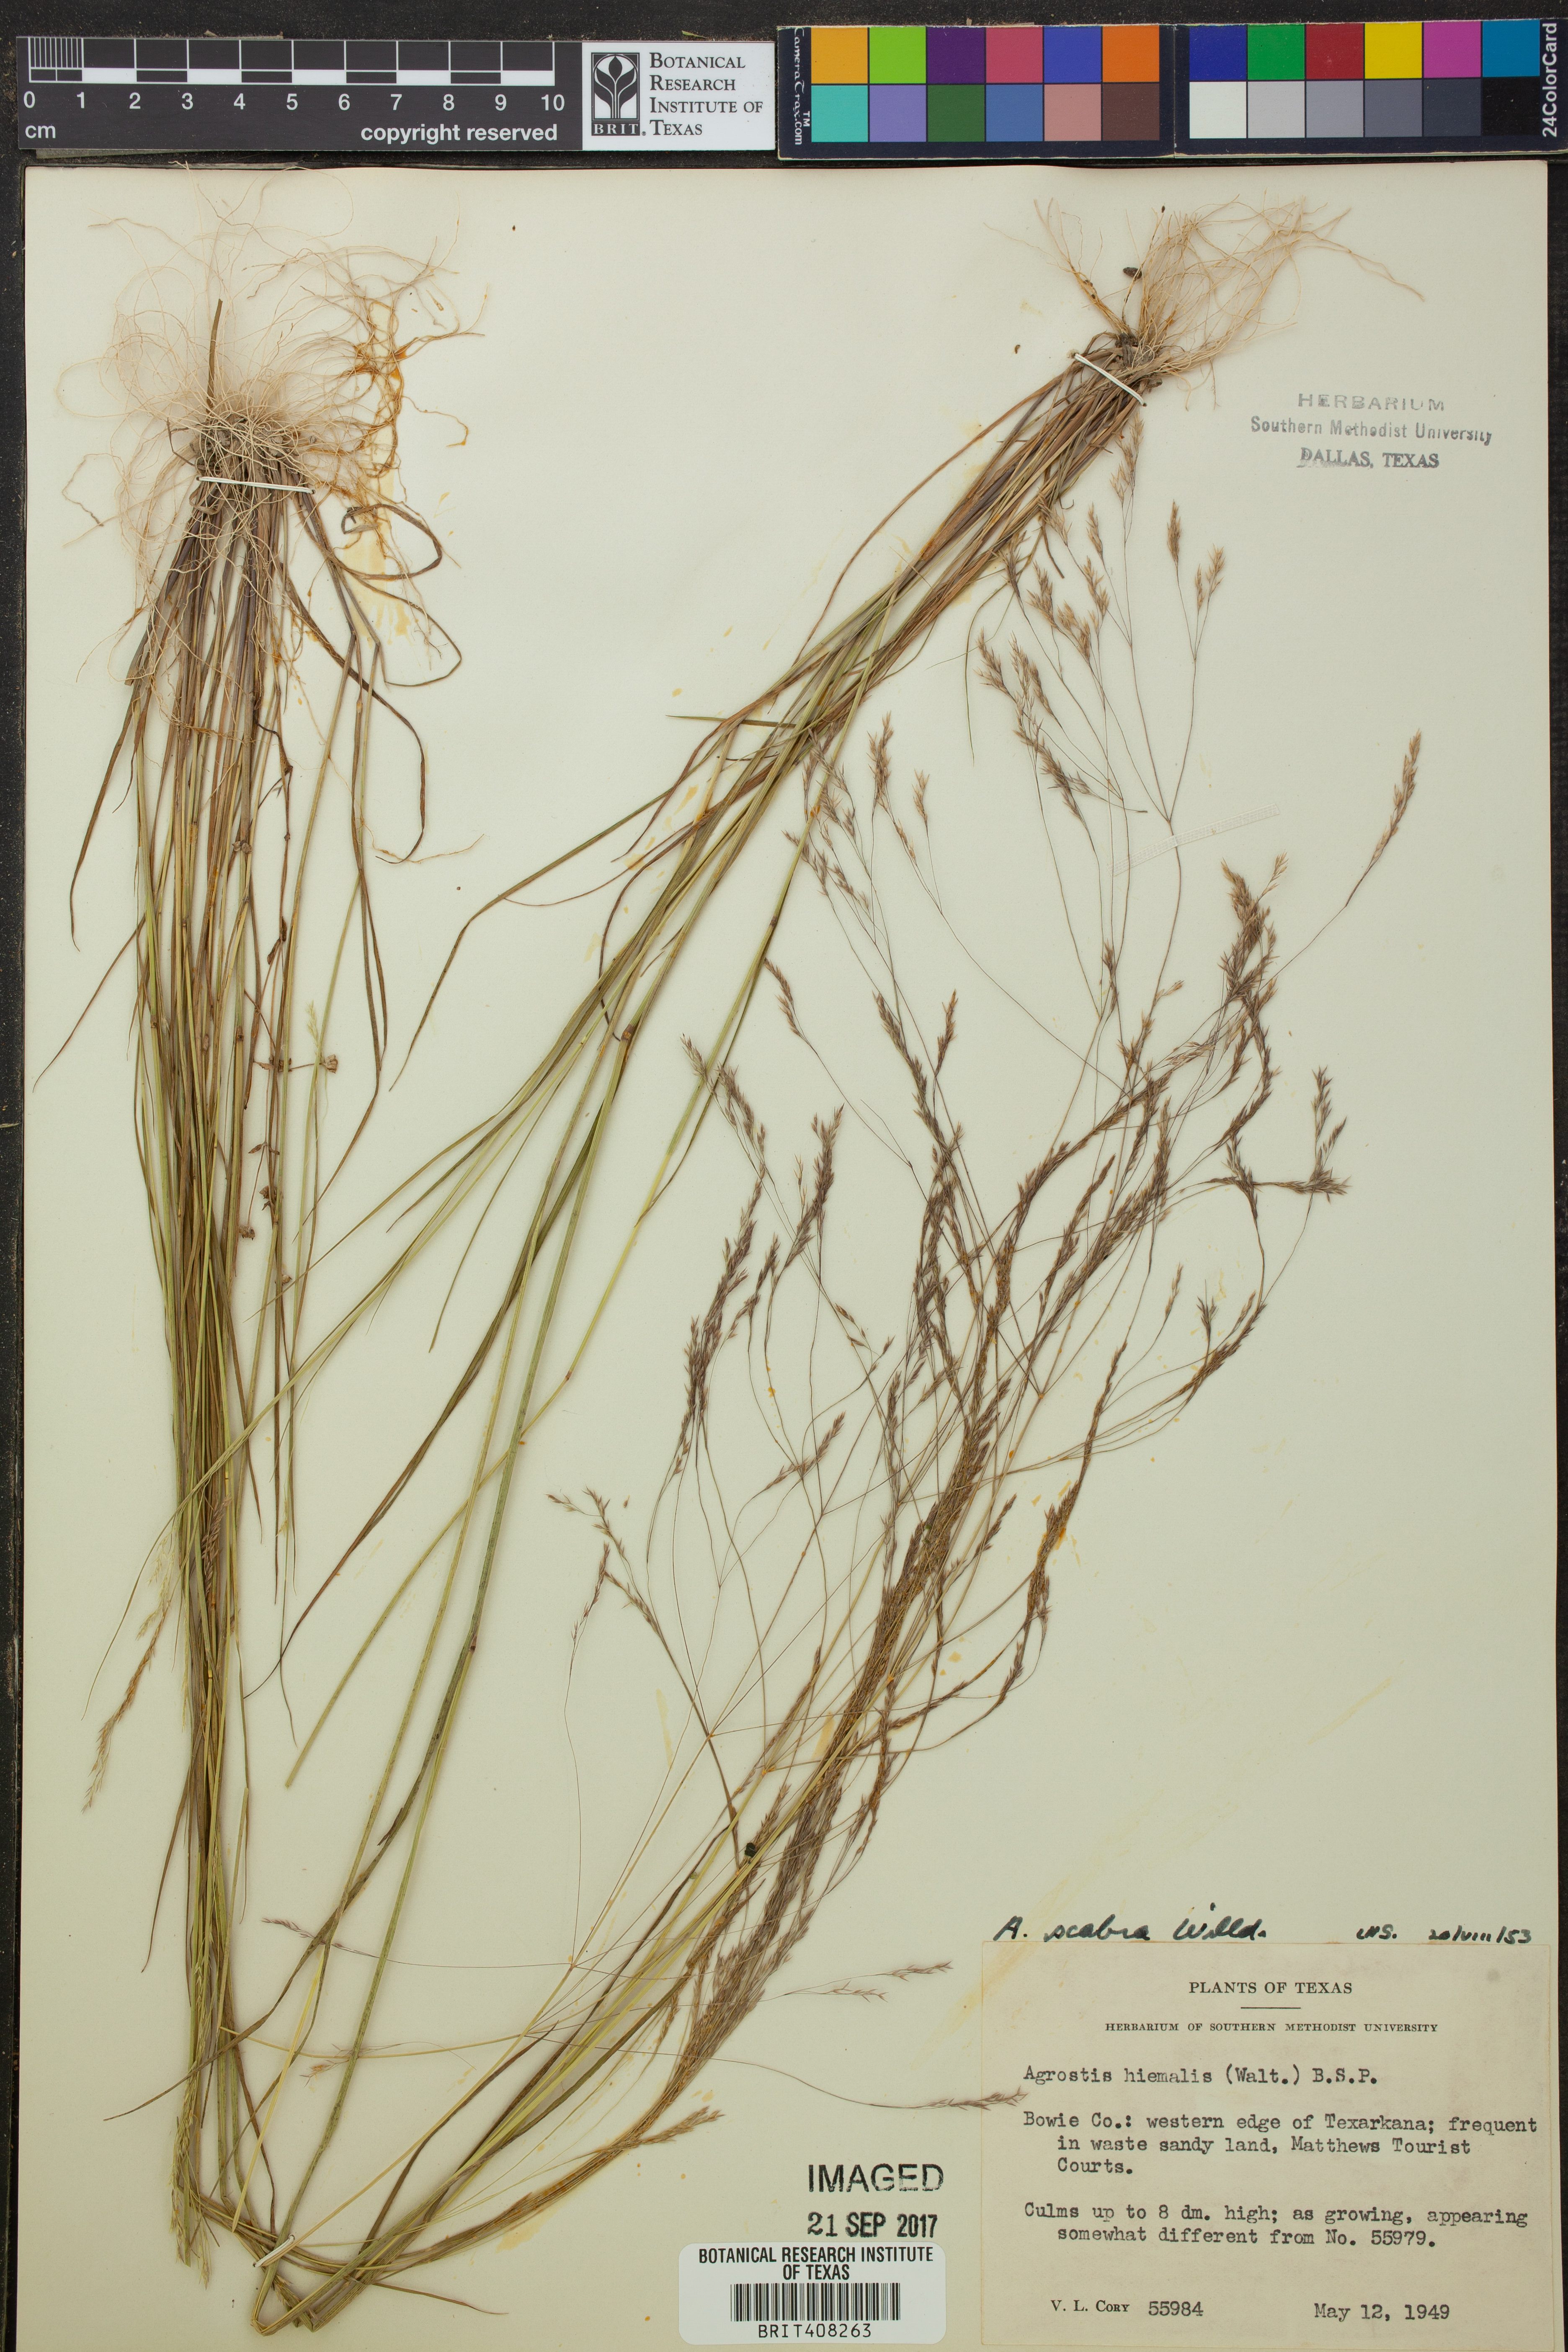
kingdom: Plantae
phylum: Tracheophyta
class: Liliopsida
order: Poales
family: Poaceae
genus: Agrostis
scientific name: Agrostis scabra
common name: Rough bent
